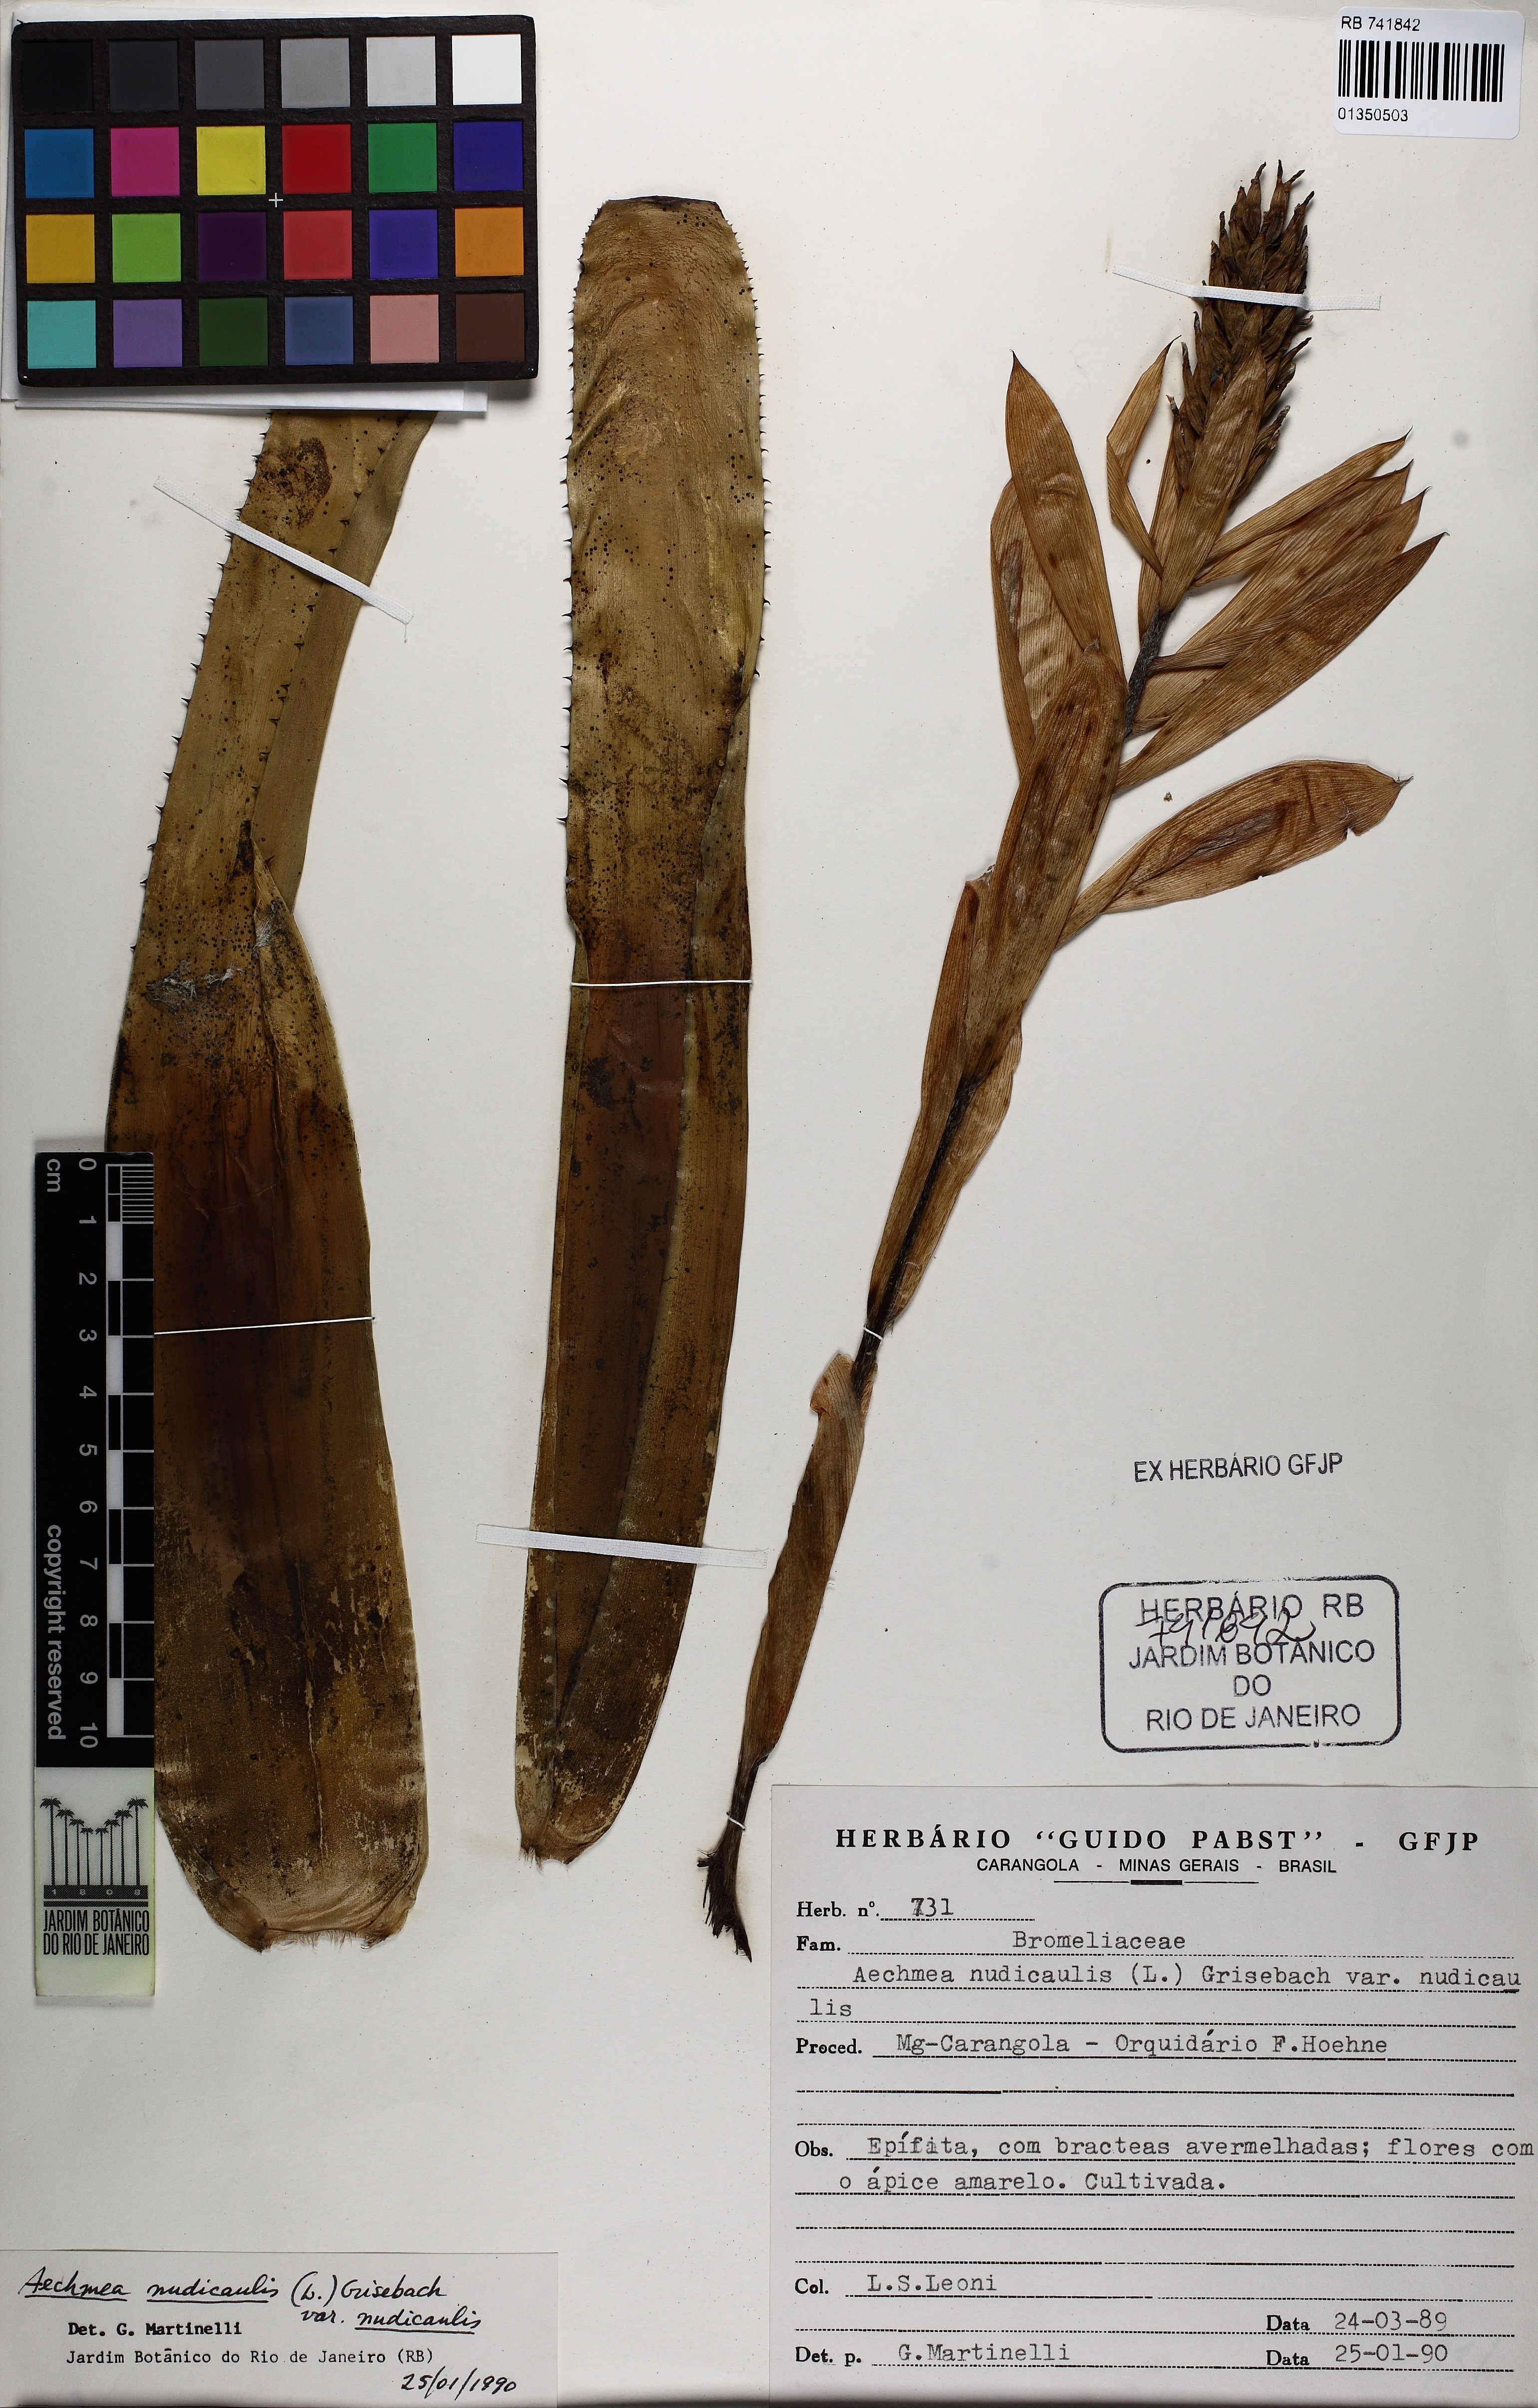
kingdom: Plantae
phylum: Tracheophyta
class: Liliopsida
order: Poales
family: Bromeliaceae
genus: Aechmea
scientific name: Aechmea nudicaulis
